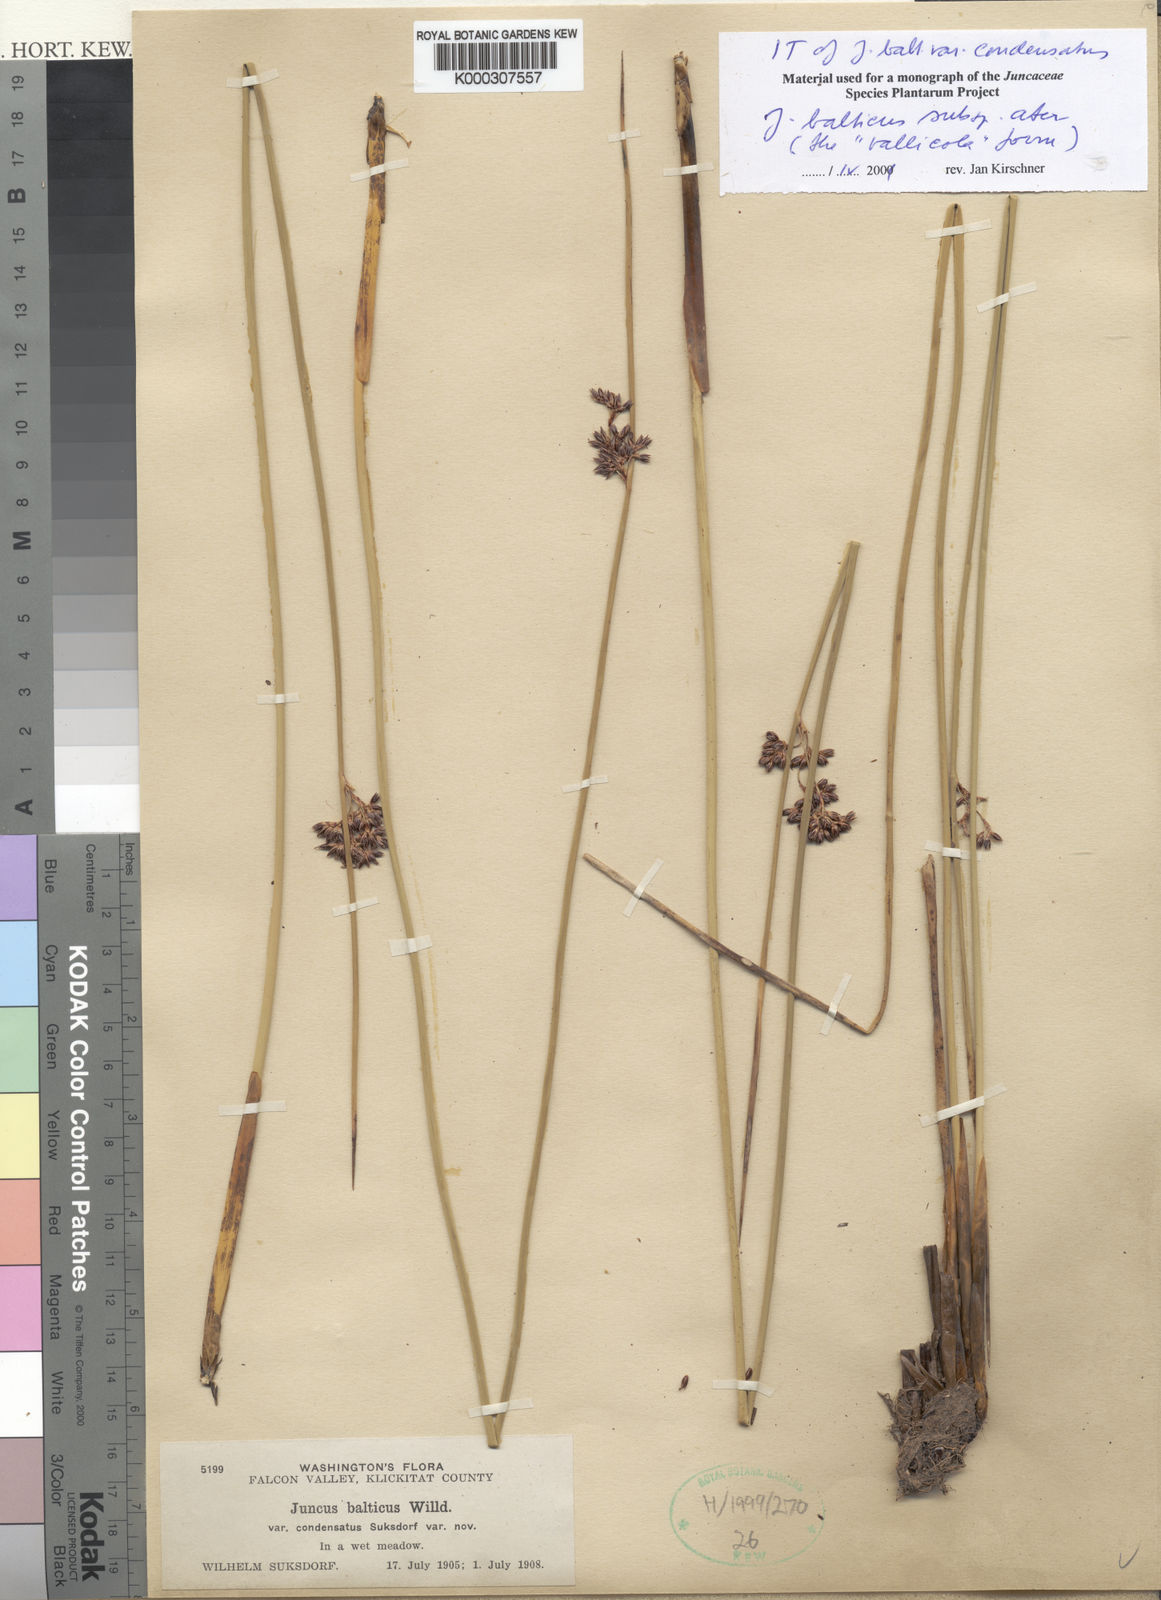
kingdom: Plantae
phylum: Tracheophyta
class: Liliopsida
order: Poales
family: Juncaceae
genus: Juncus
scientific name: Juncus balticus
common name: Baltic rush
